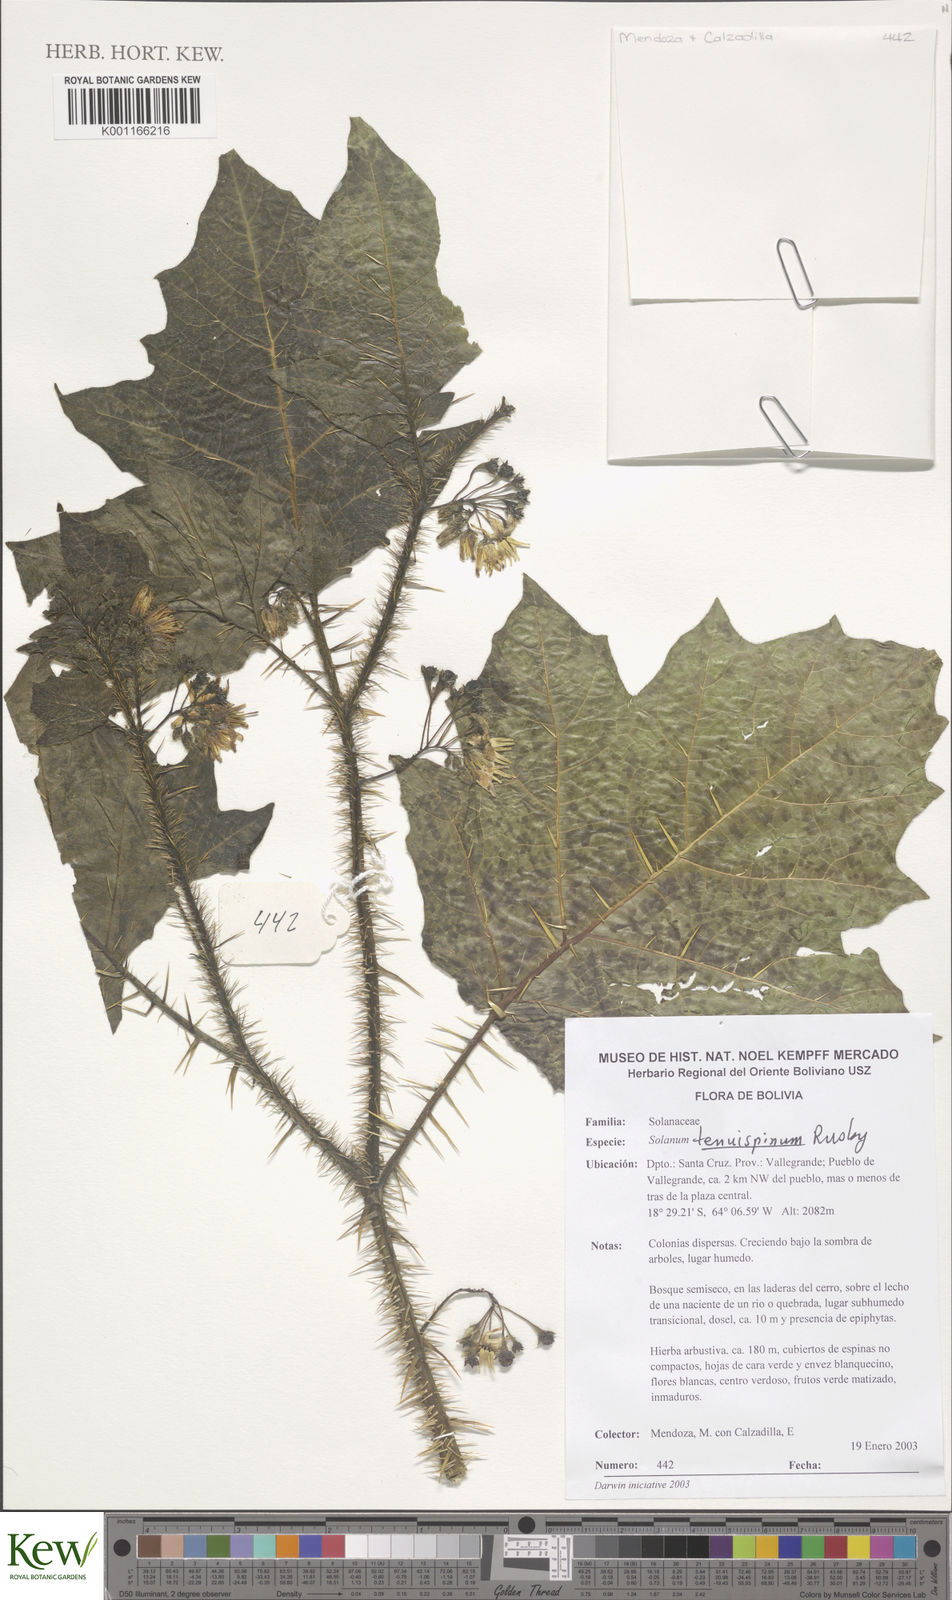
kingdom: Plantae
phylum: Tracheophyta
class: Magnoliopsida
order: Solanales
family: Solanaceae
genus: Solanum
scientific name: Solanum tenuispinum
